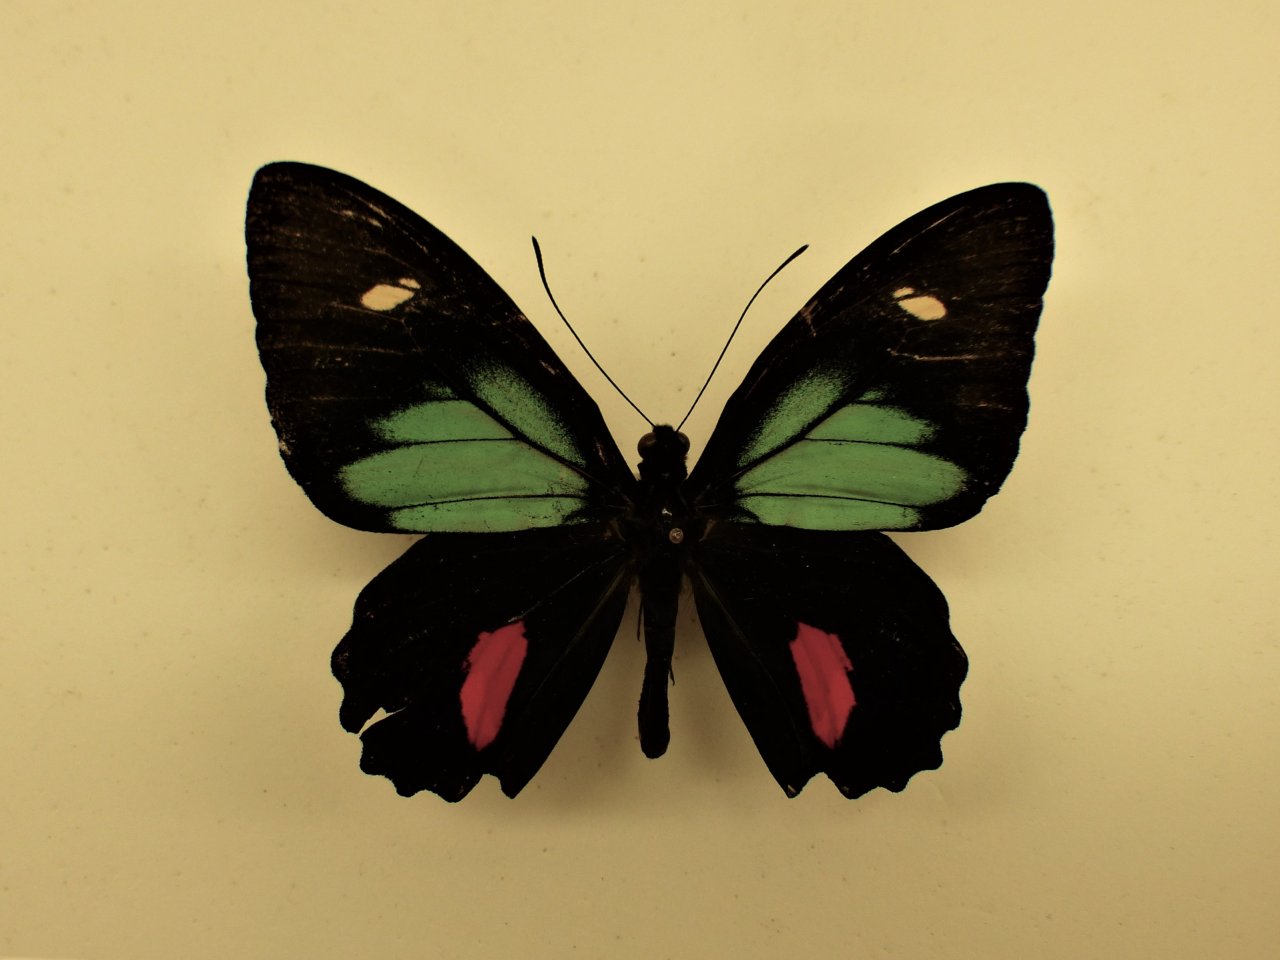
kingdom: Animalia
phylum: Arthropoda
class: Insecta
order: Lepidoptera
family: Papilionidae
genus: Parides
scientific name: Parides childrenae
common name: Green-celled Cattleheart
